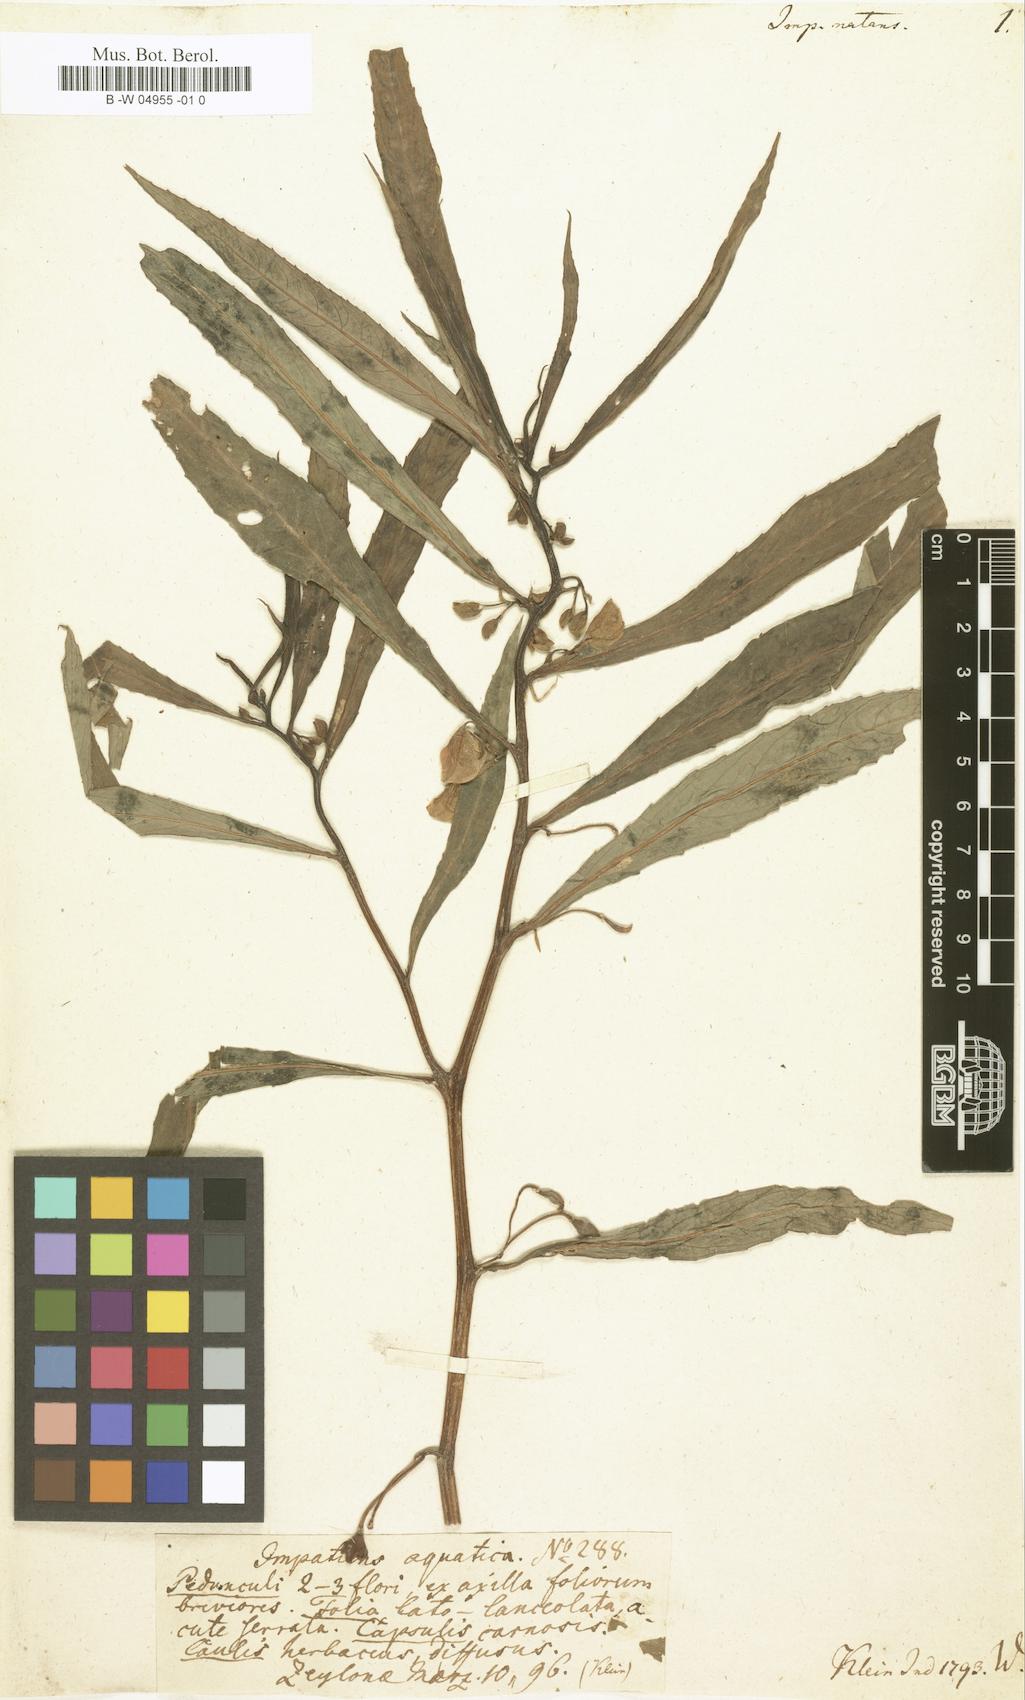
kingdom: Plantae
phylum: Tracheophyta
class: Magnoliopsida
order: Ericales
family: Balsaminaceae
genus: Hydrocera
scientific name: Hydrocera triflora
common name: Marsh henna
